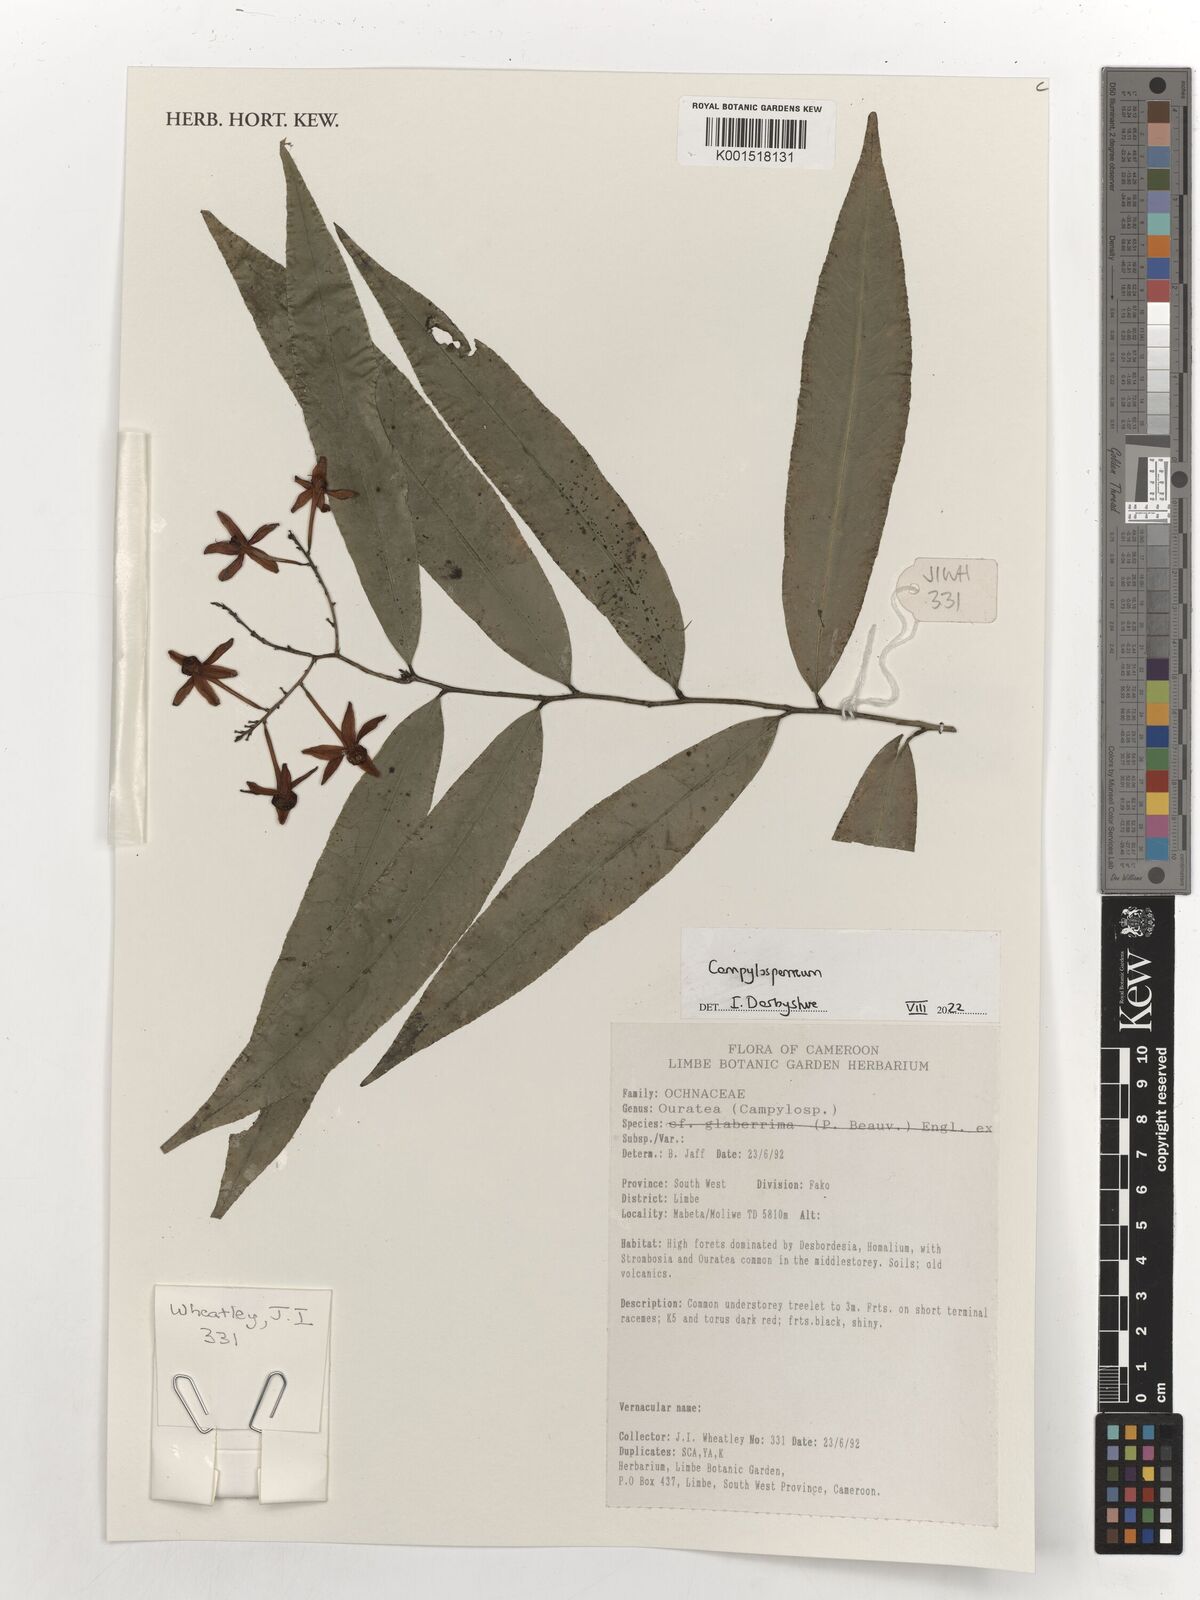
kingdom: Plantae
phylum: Tracheophyta
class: Magnoliopsida
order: Malpighiales
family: Ochnaceae
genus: Campylospermum
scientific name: Campylospermum reticulatum
